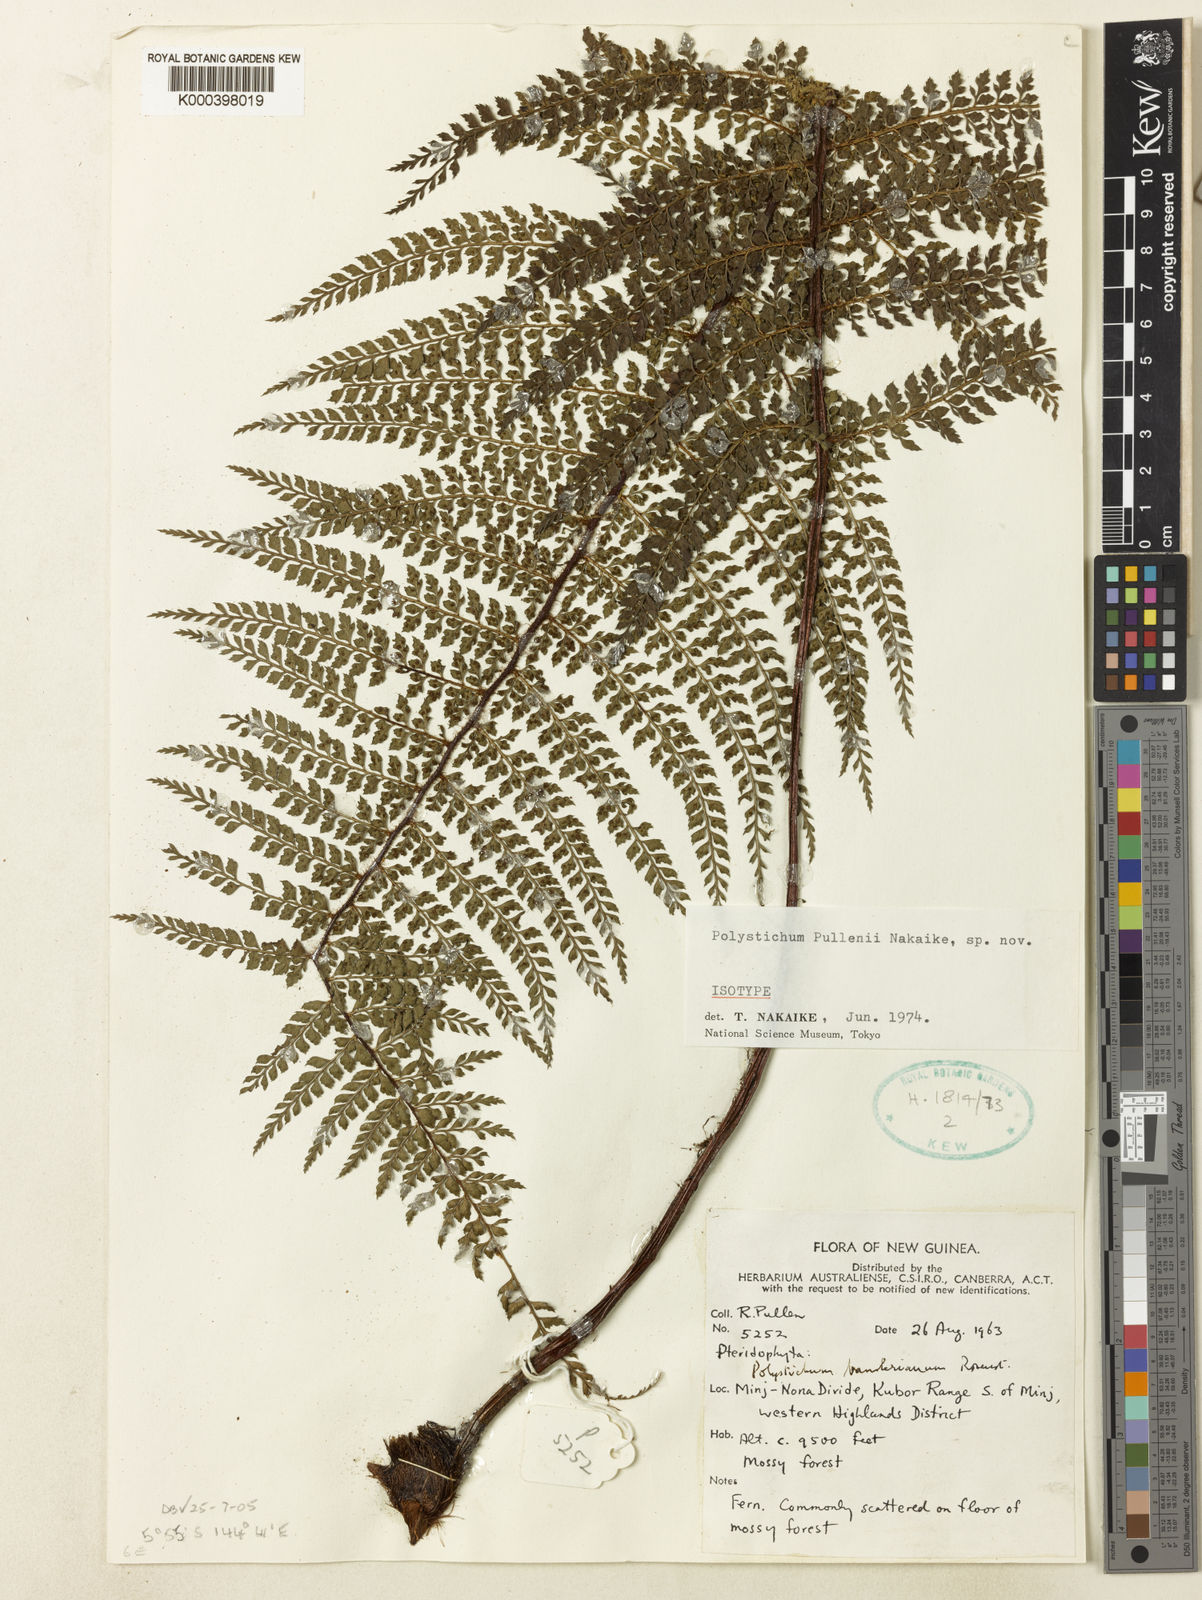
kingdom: Plantae
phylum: Tracheophyta
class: Polypodiopsida
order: Polypodiales
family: Dryopteridaceae
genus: Polystichum
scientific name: Polystichum bamlerianum
